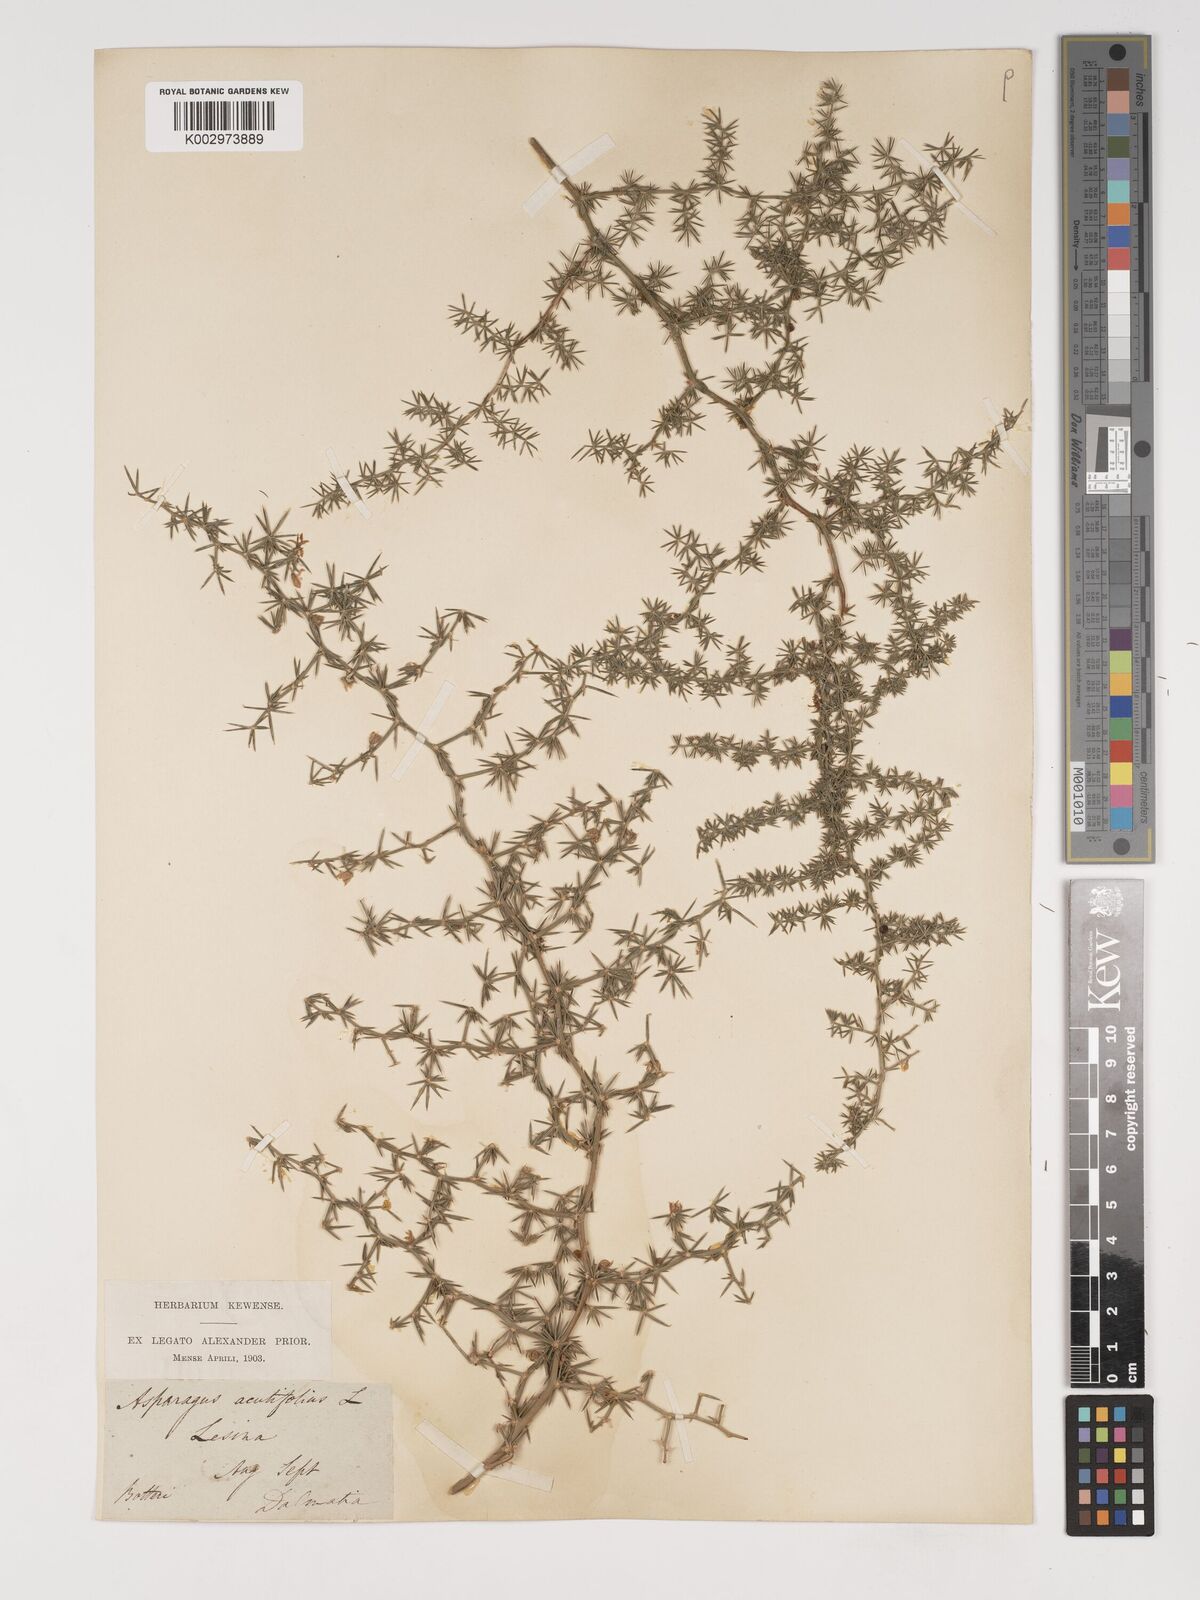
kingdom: Plantae
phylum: Tracheophyta
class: Liliopsida
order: Asparagales
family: Asparagaceae
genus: Asparagus
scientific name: Asparagus aethiopicus
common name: Sprenger's asparagus fern
